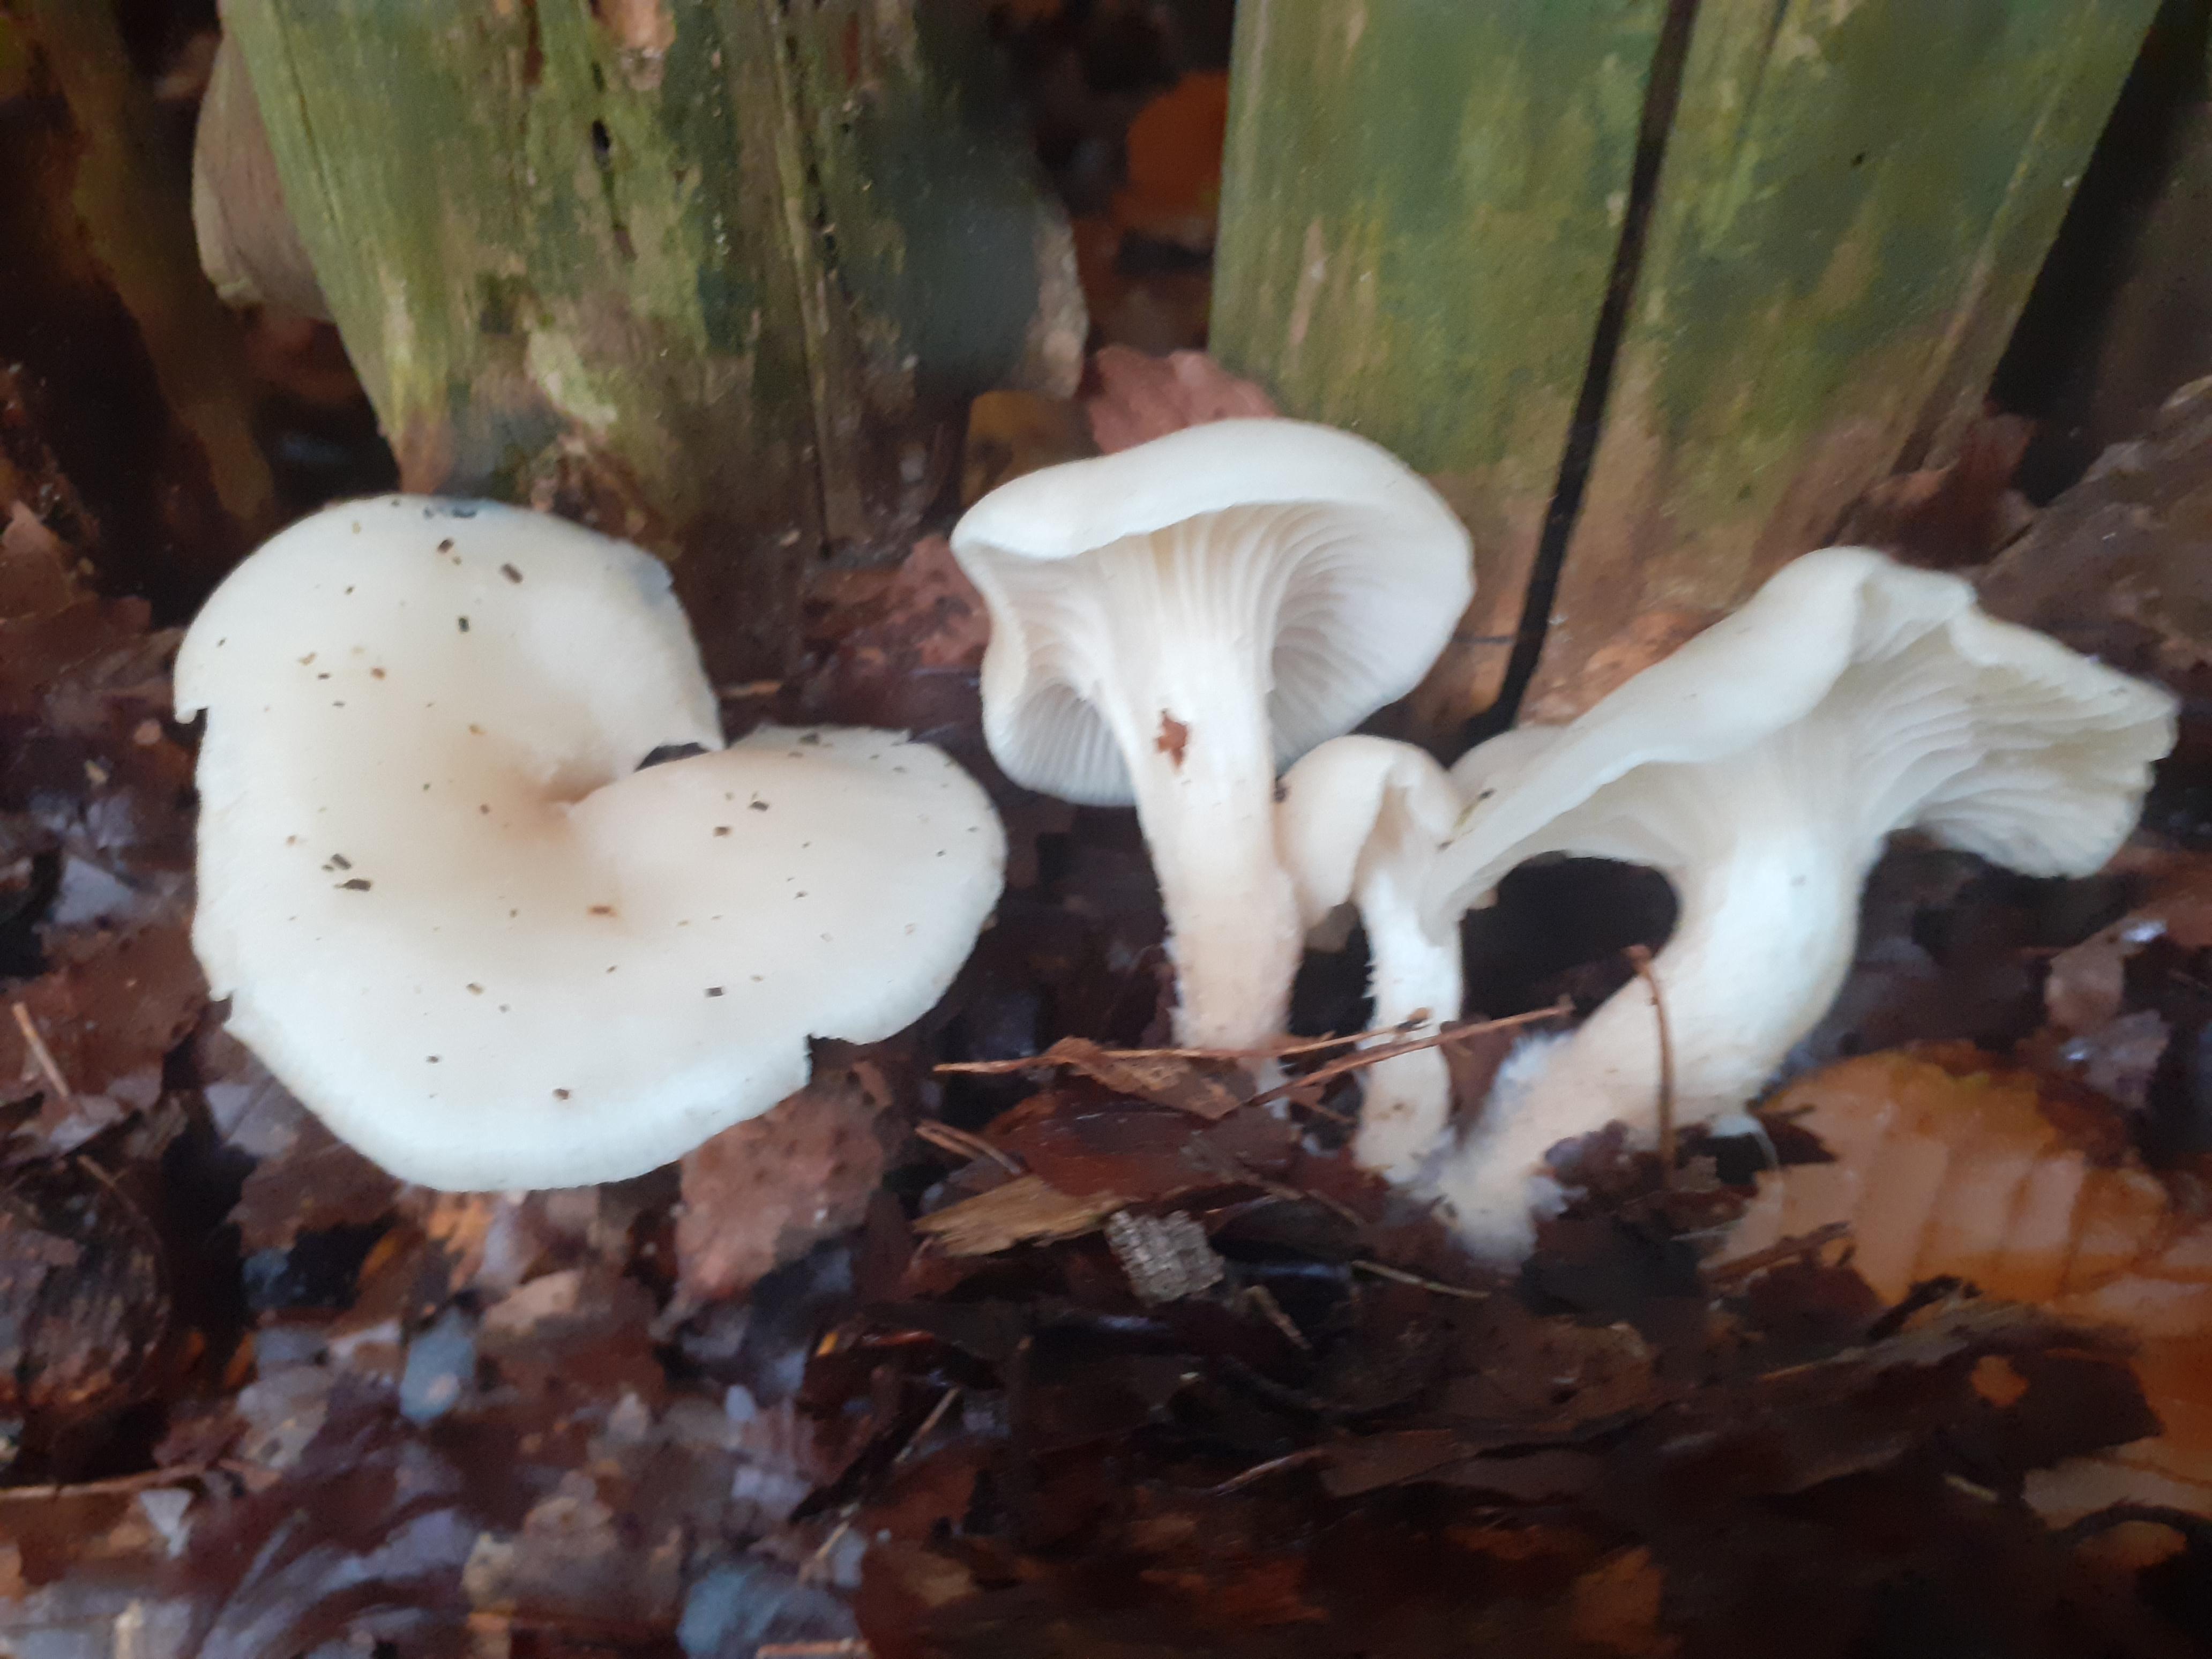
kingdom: Fungi
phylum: Basidiomycota
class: Agaricomycetes
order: Agaricales
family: Tricholomataceae
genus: Clitocybe
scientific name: Clitocybe phaeophthalma
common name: stinkende tragthat
